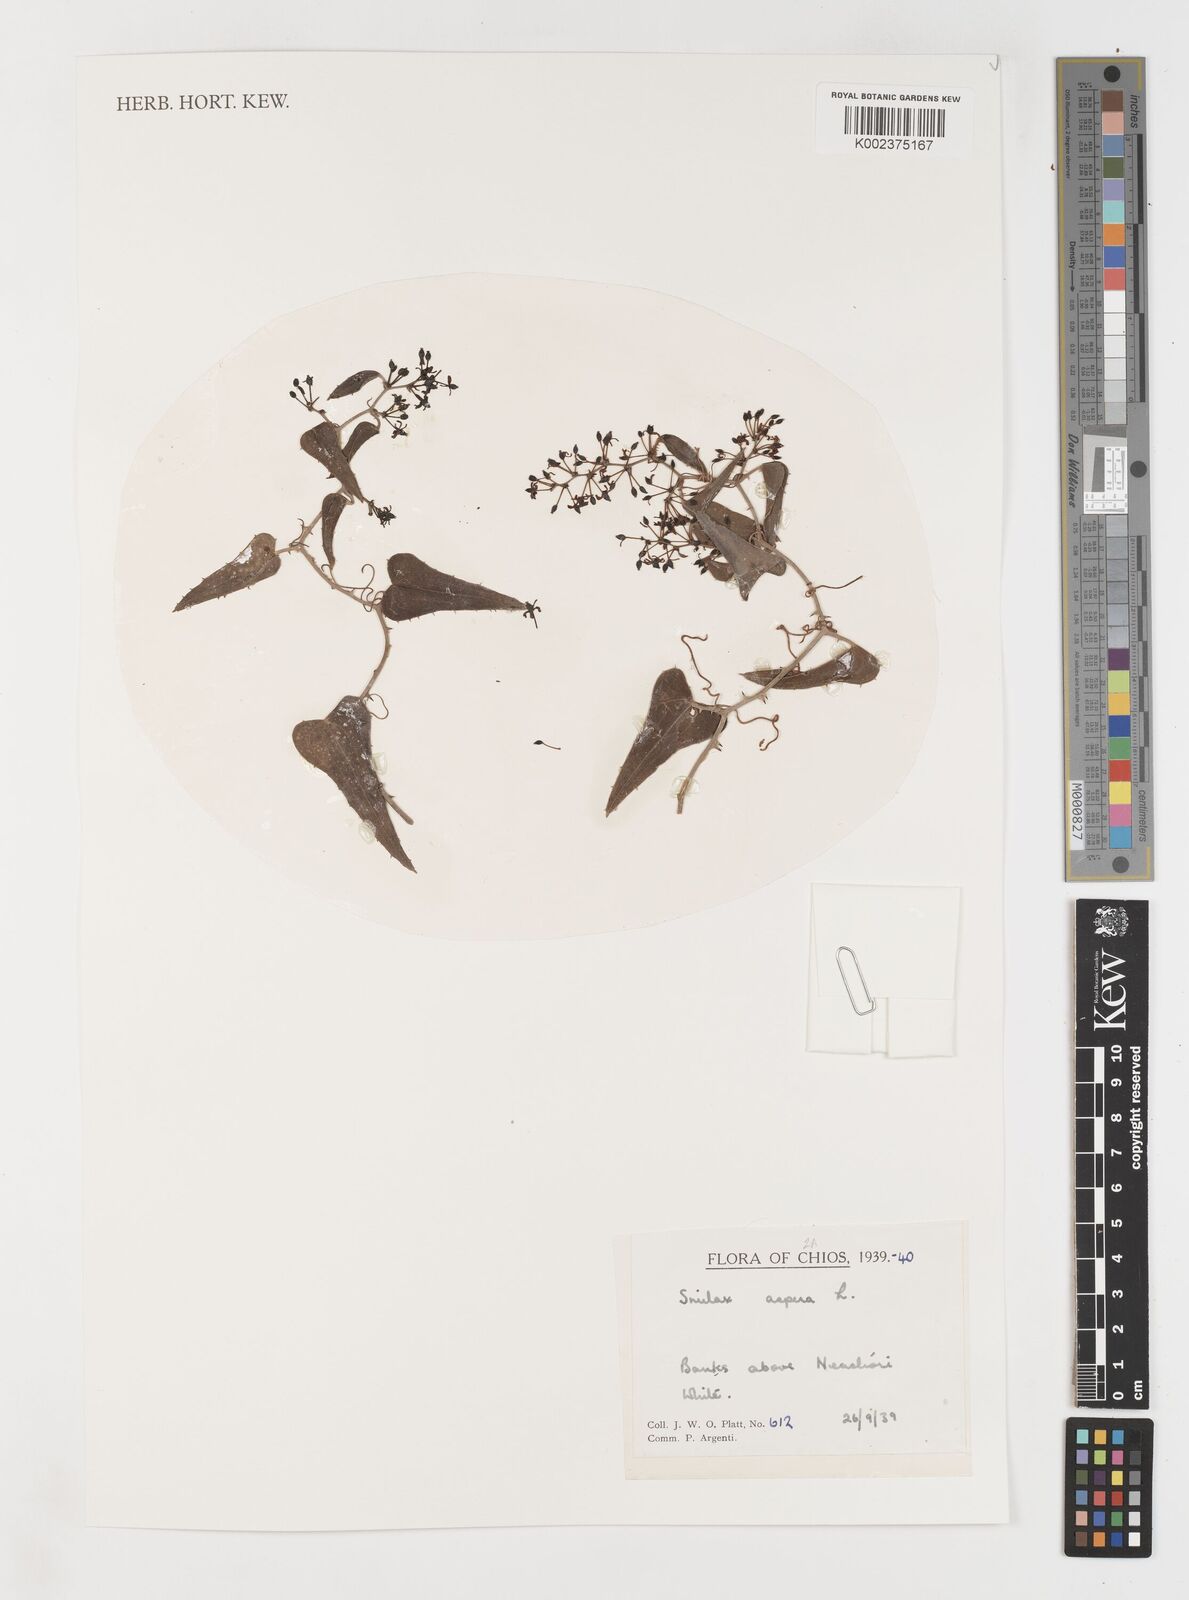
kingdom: Plantae
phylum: Tracheophyta
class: Liliopsida
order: Liliales
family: Smilacaceae
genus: Smilax
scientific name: Smilax aspera
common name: Common smilax
